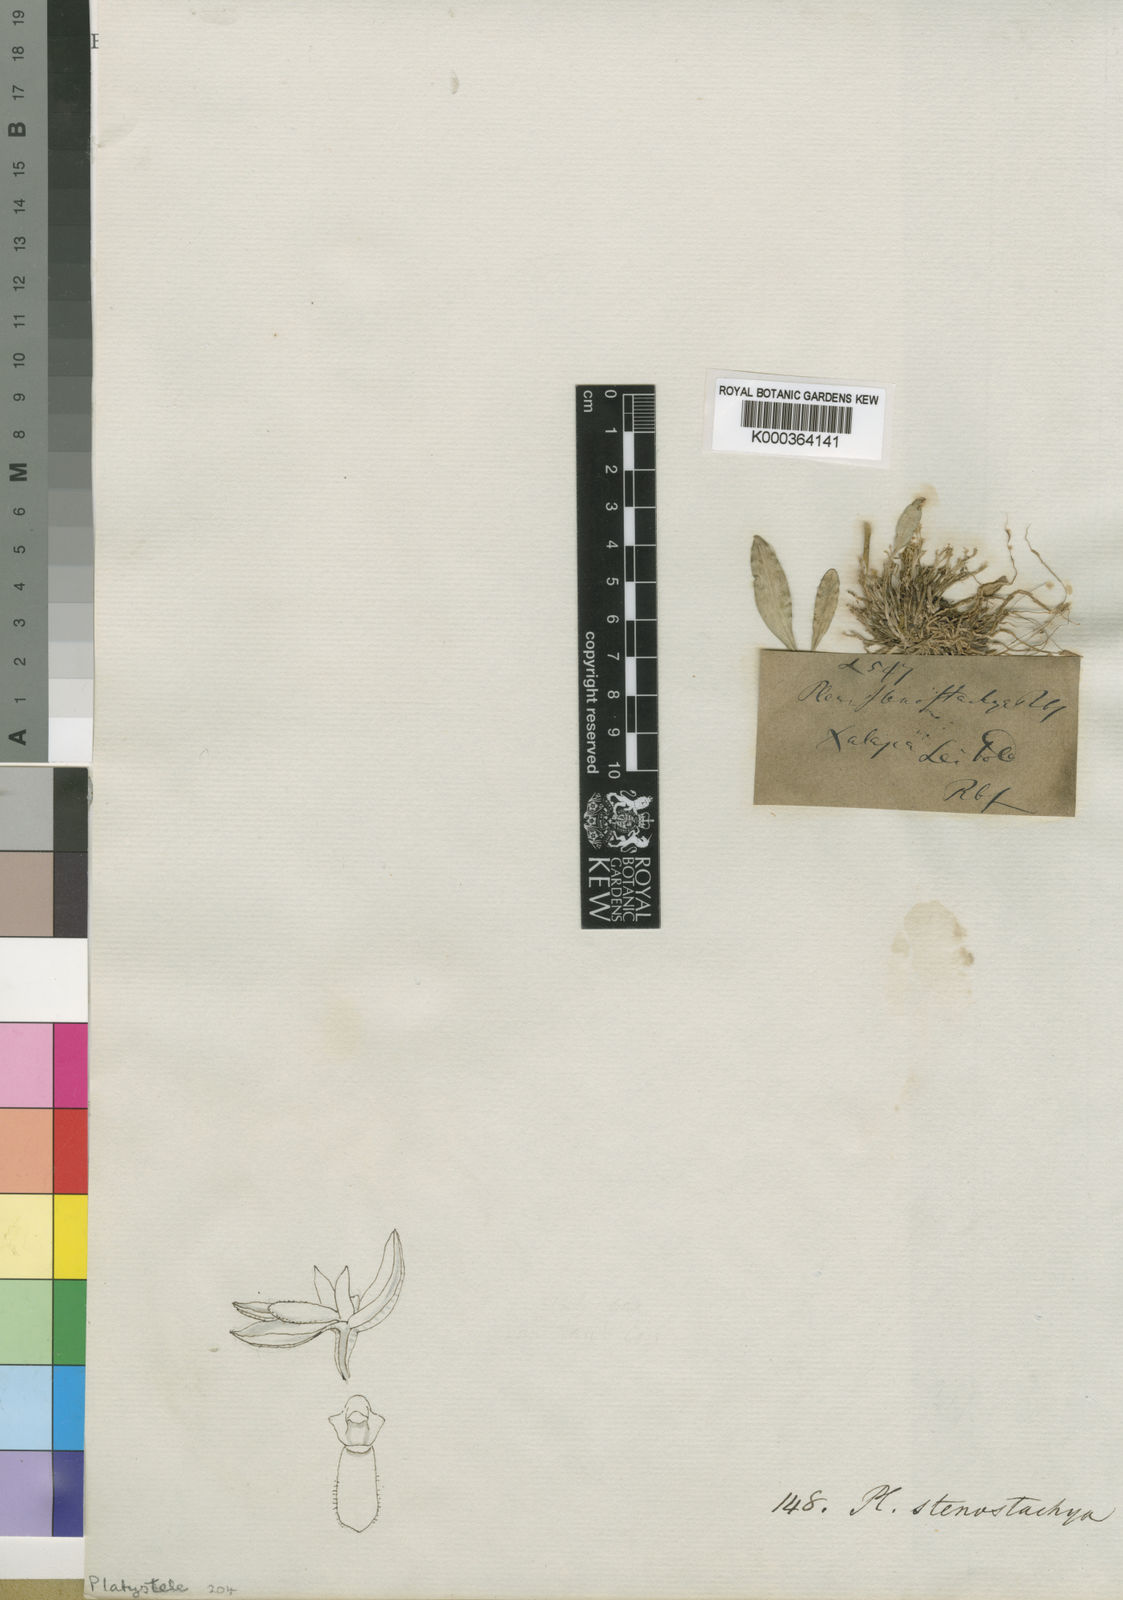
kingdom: Plantae
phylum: Tracheophyta
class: Liliopsida
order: Asparagales
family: Orchidaceae
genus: Platystele
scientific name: Platystele stenostachya
